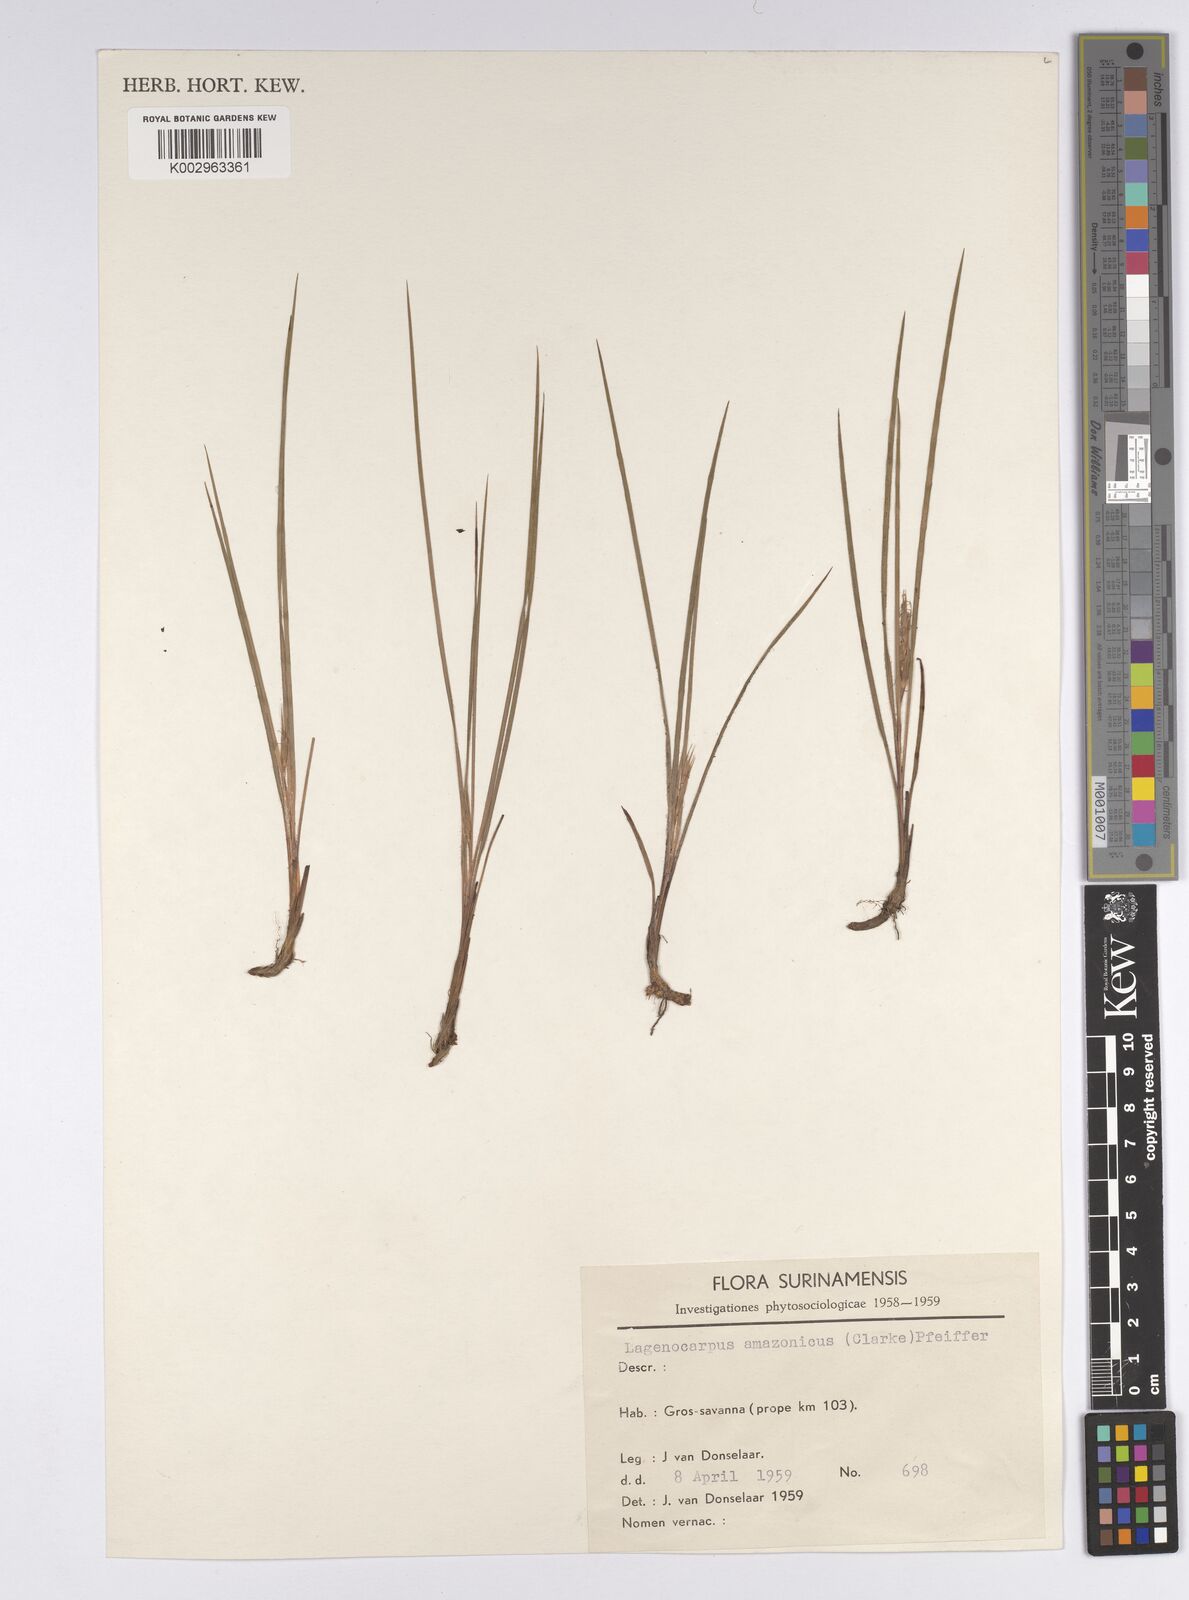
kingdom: Plantae
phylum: Tracheophyta
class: Liliopsida
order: Poales
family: Cyperaceae
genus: Exochogyne
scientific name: Exochogyne amazonica
